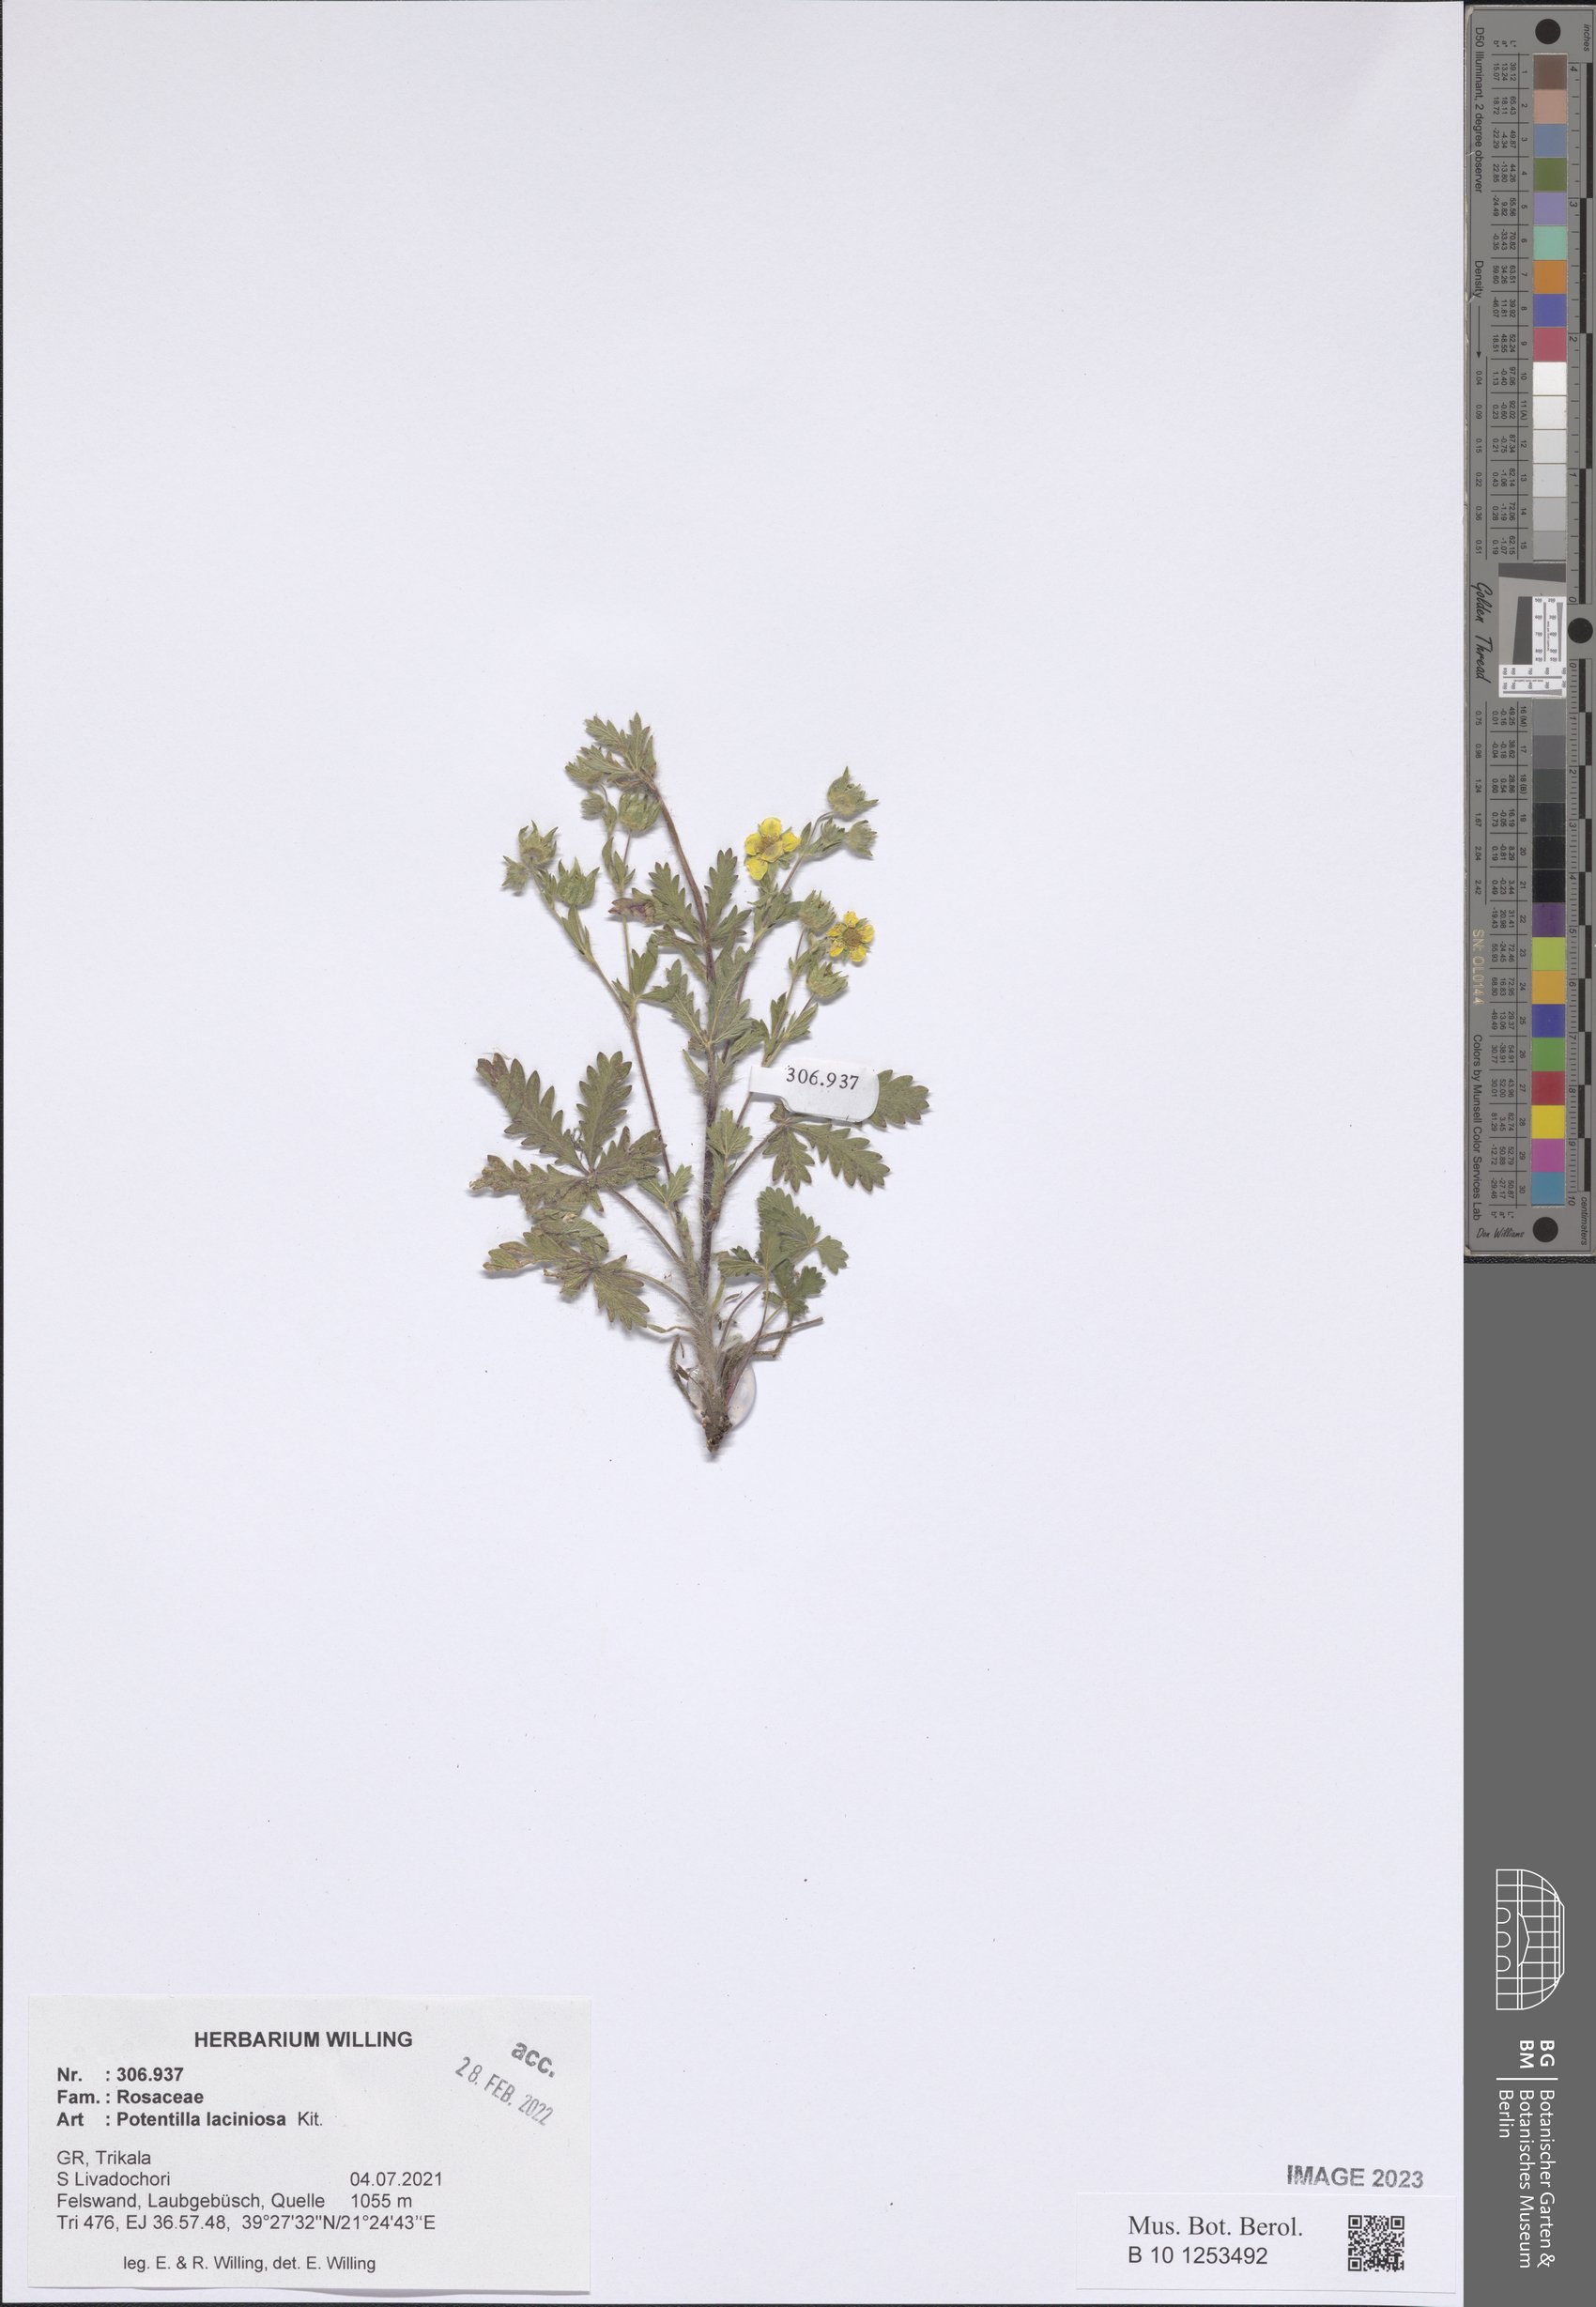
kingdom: Plantae
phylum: Tracheophyta
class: Magnoliopsida
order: Rosales
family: Rosaceae
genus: Potentilla
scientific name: Potentilla recta
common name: Sulphur cinquefoil
